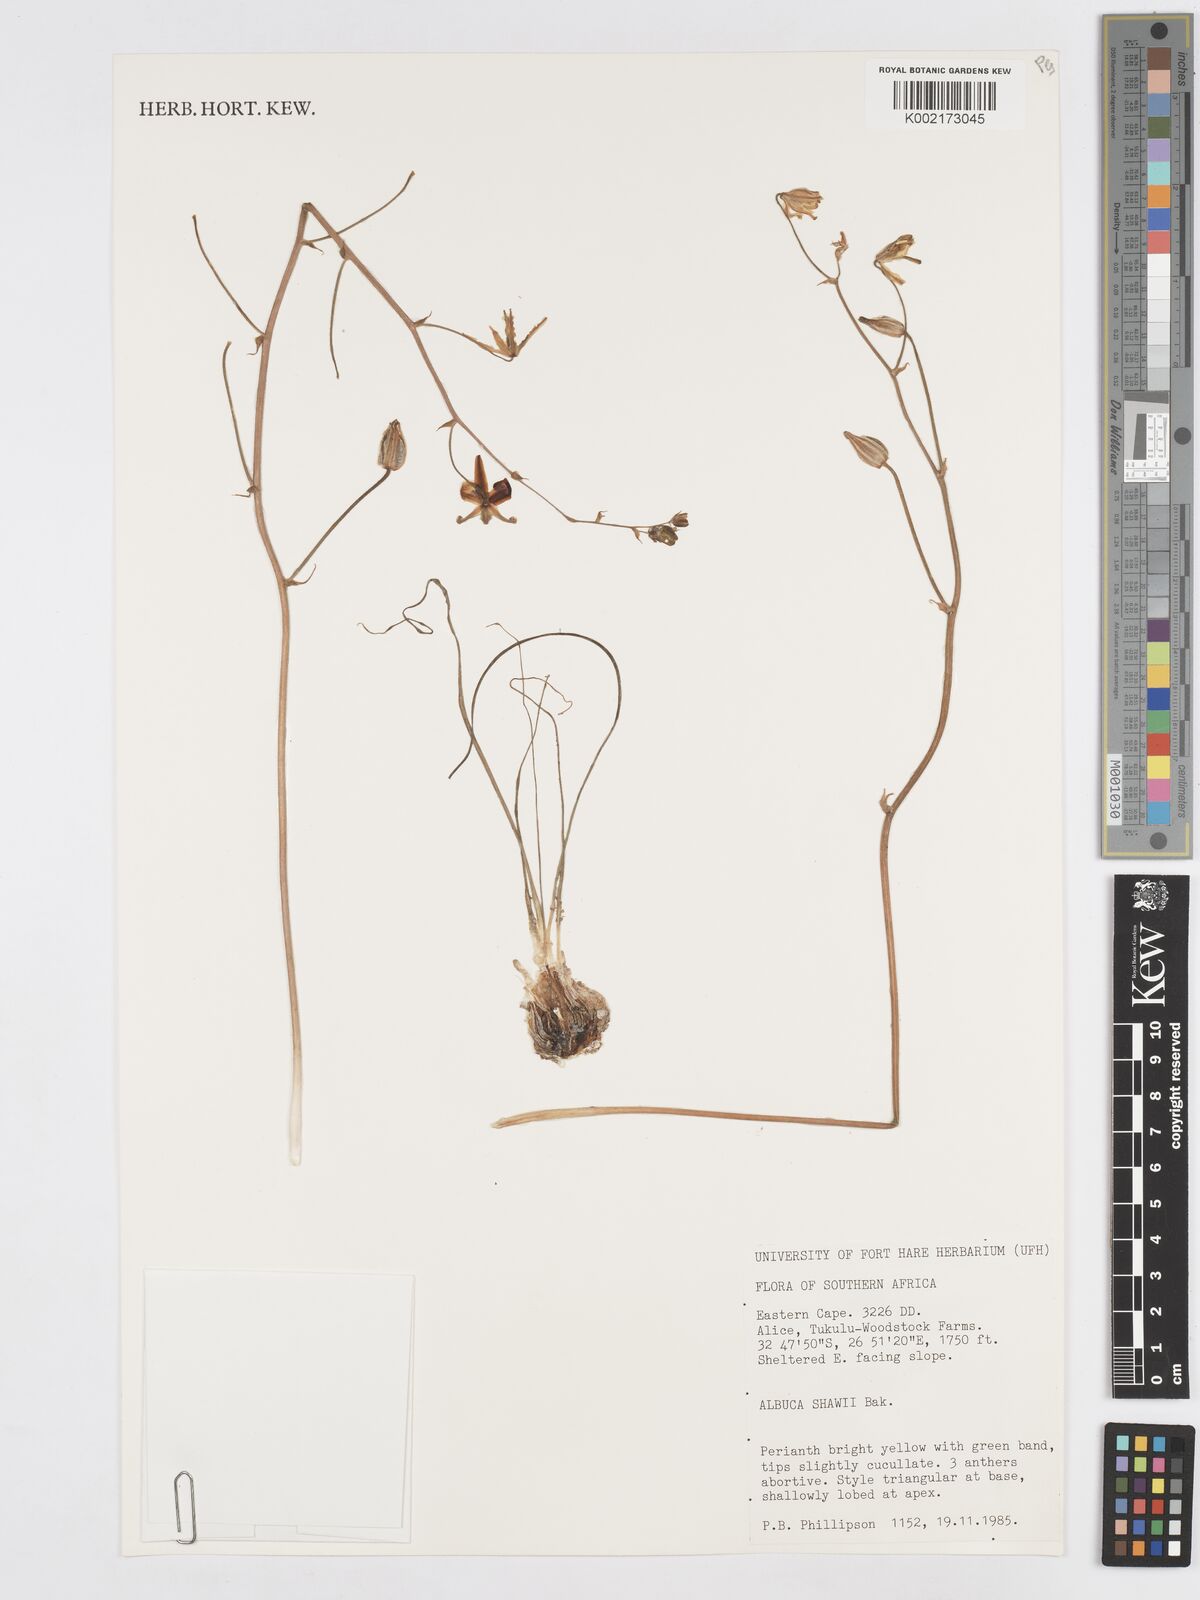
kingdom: Plantae
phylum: Tracheophyta
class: Liliopsida
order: Asparagales
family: Asparagaceae
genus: Albuca
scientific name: Albuca shawii
